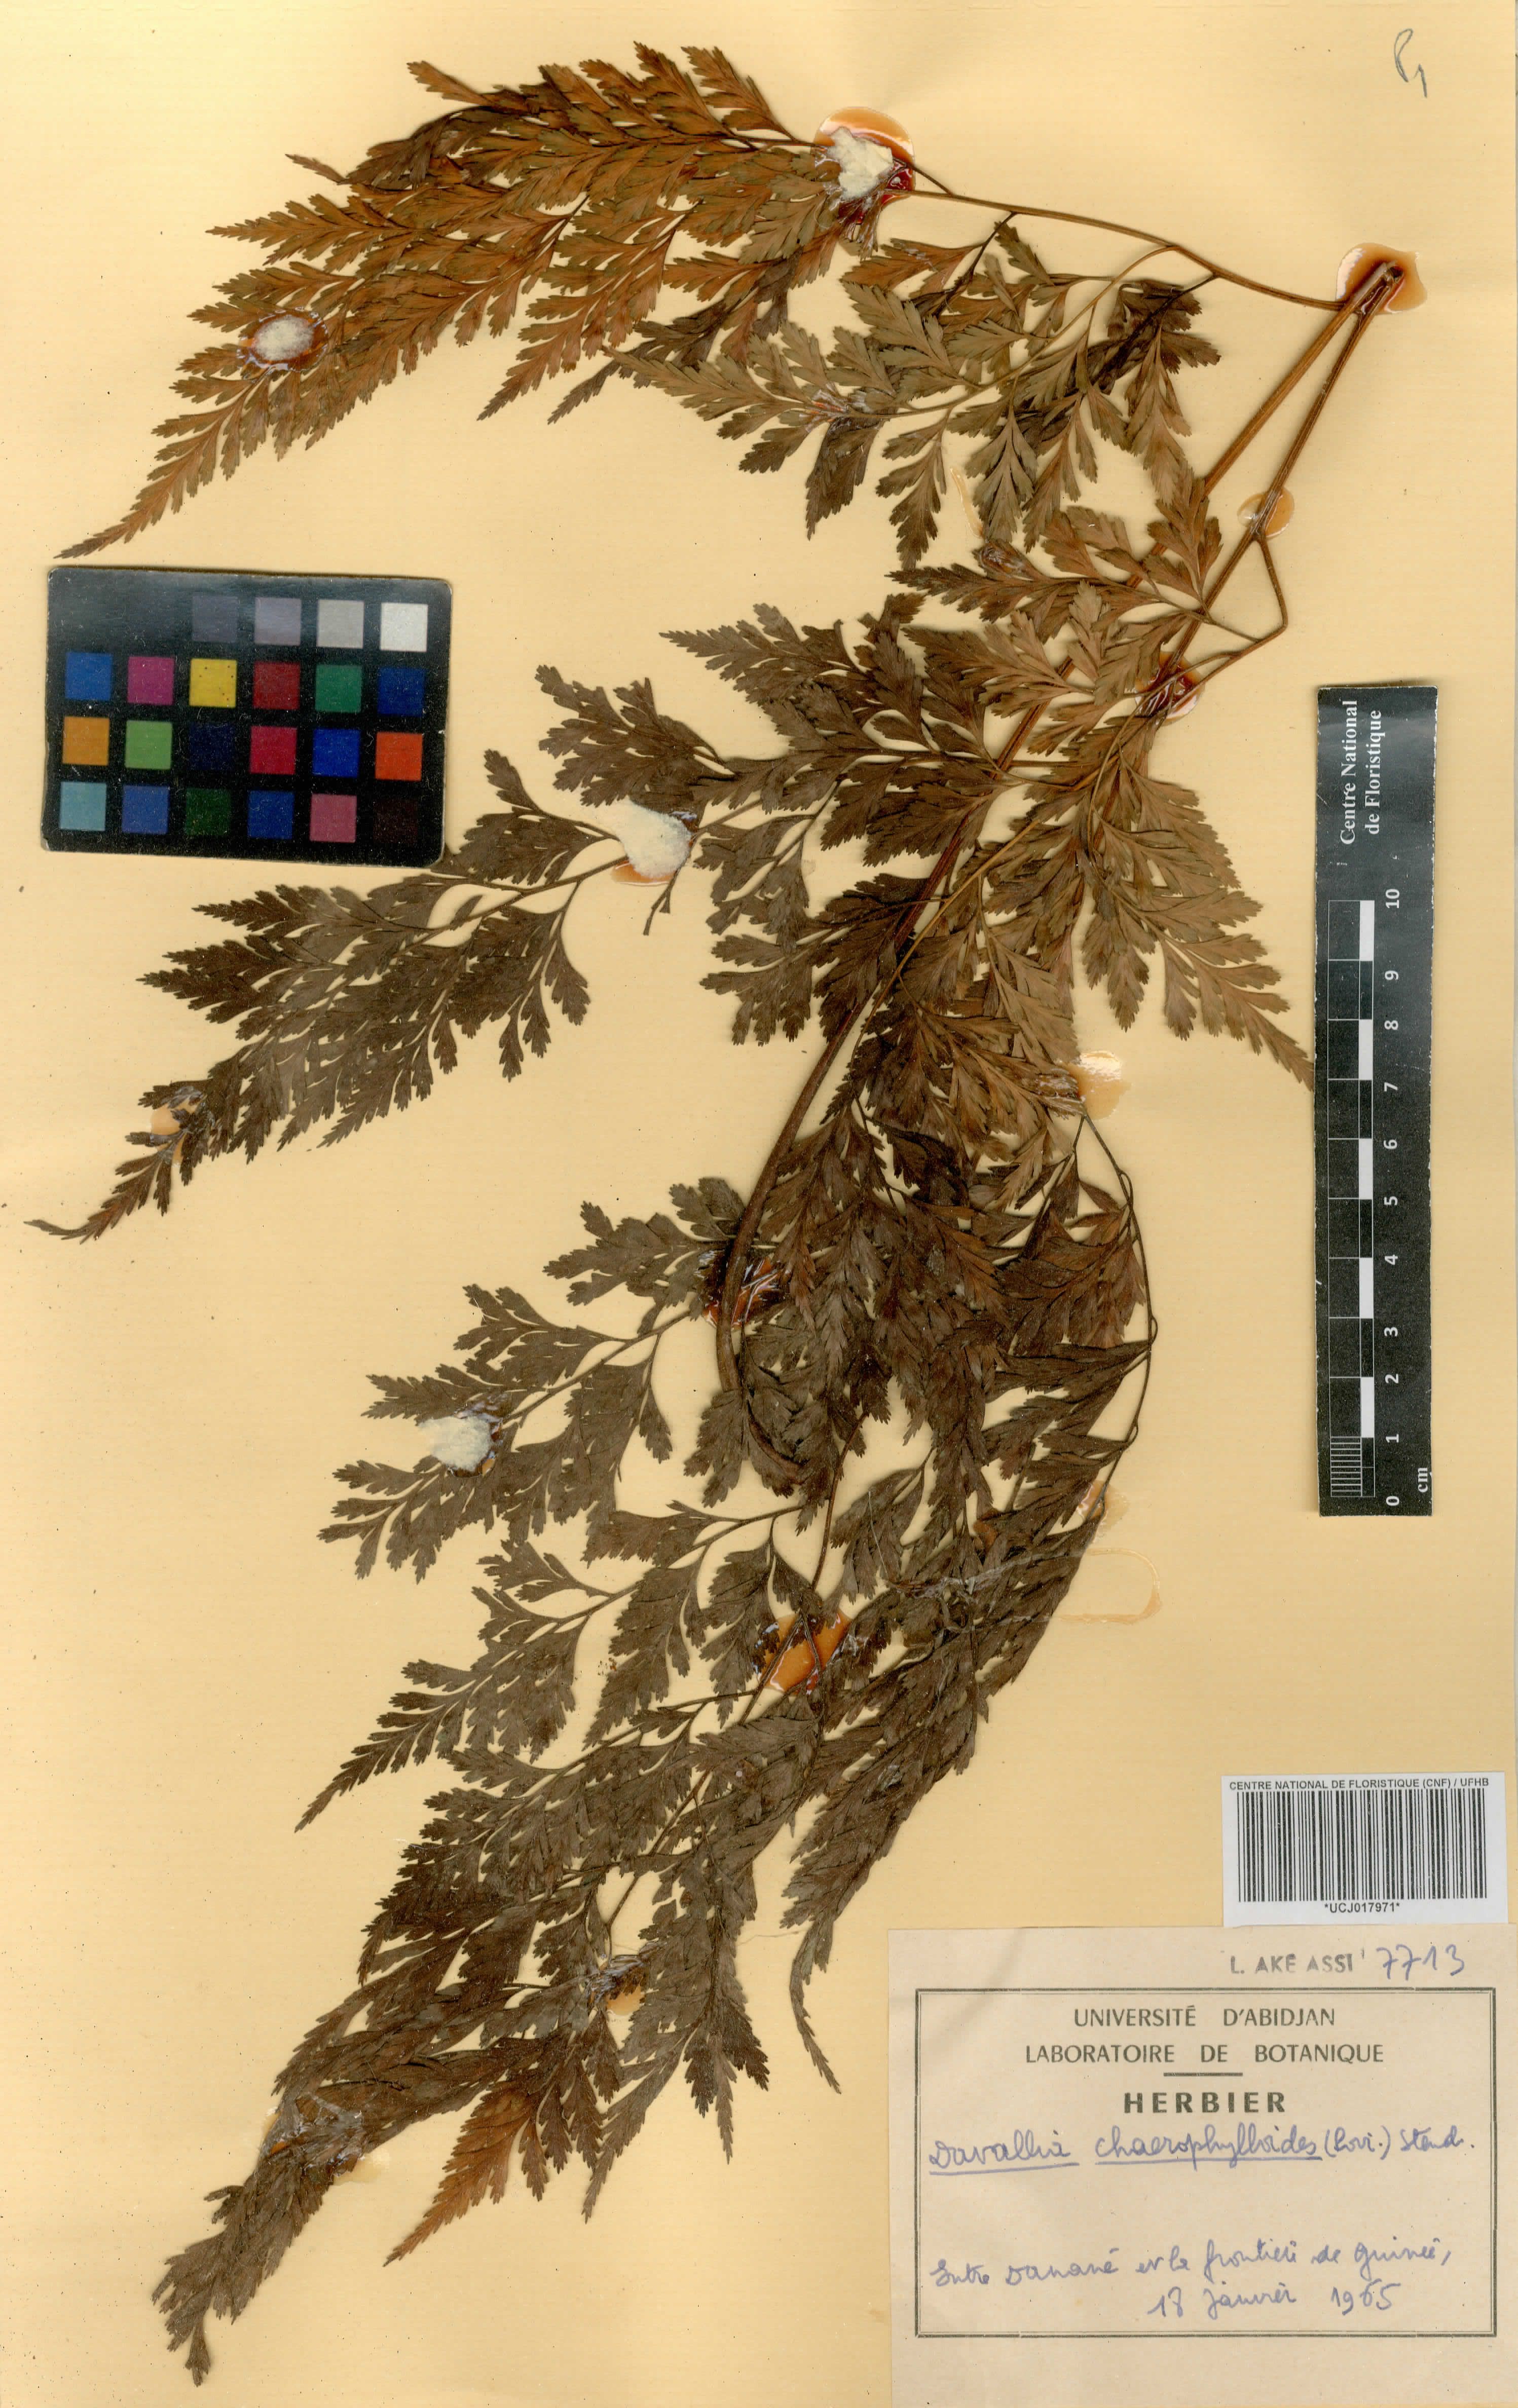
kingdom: Plantae
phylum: Tracheophyta
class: Polypodiopsida
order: Polypodiales
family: Davalliaceae
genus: Davallia
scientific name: Davallia chaerophylloides
